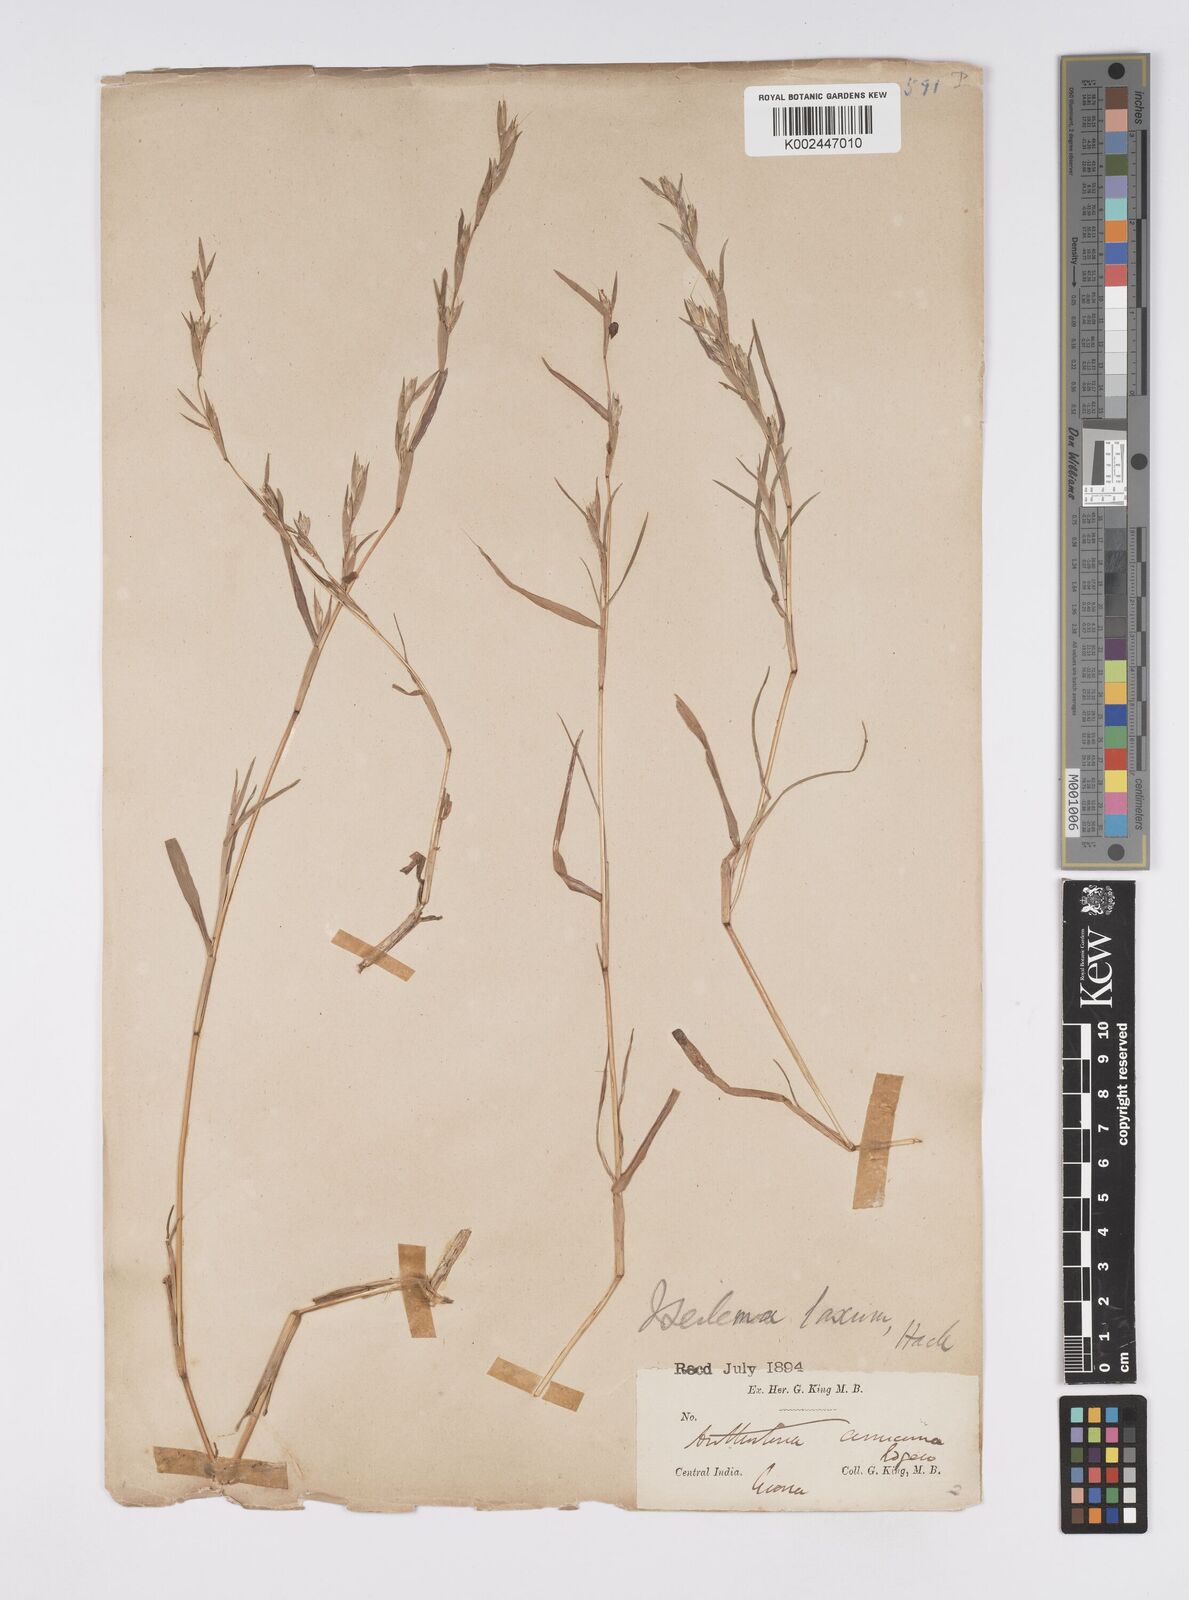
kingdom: Plantae
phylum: Tracheophyta
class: Liliopsida
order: Poales
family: Poaceae
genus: Iseilema
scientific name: Iseilema prostratum
